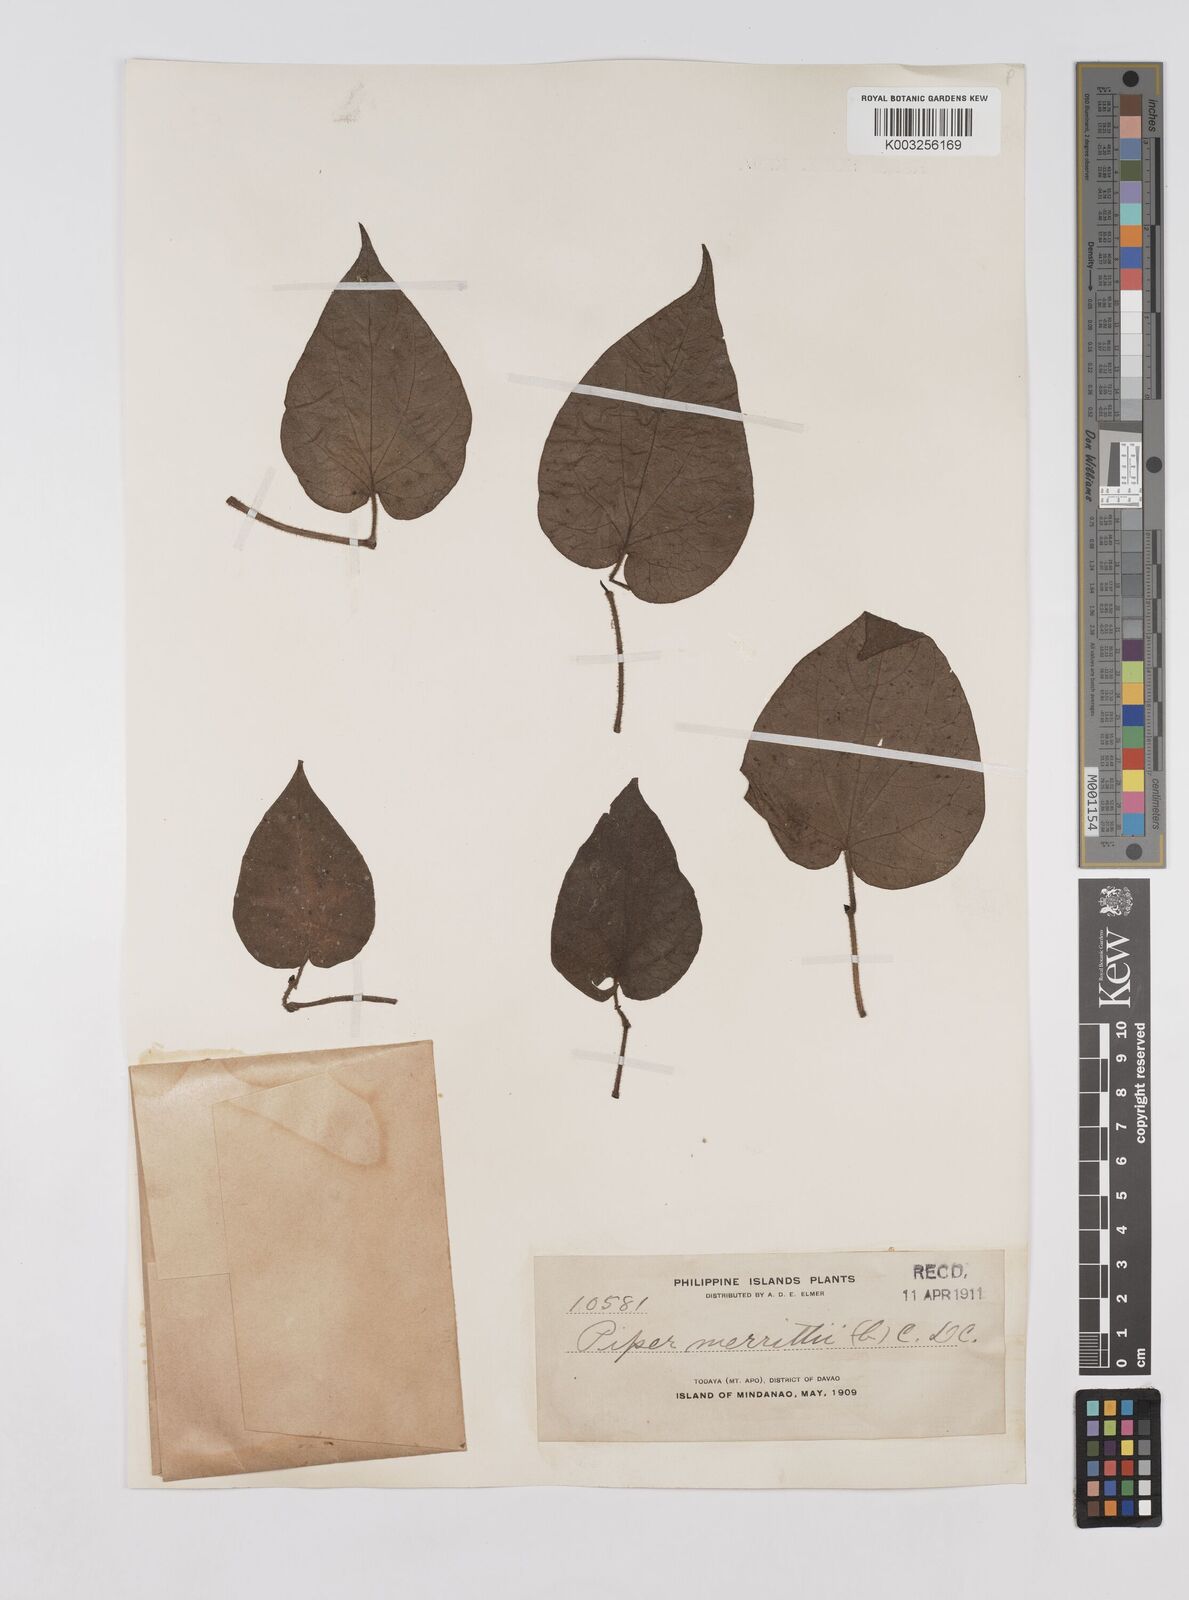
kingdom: Plantae
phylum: Tracheophyta
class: Magnoliopsida
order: Piperales
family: Piperaceae
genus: Piper
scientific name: Piper lanatum
